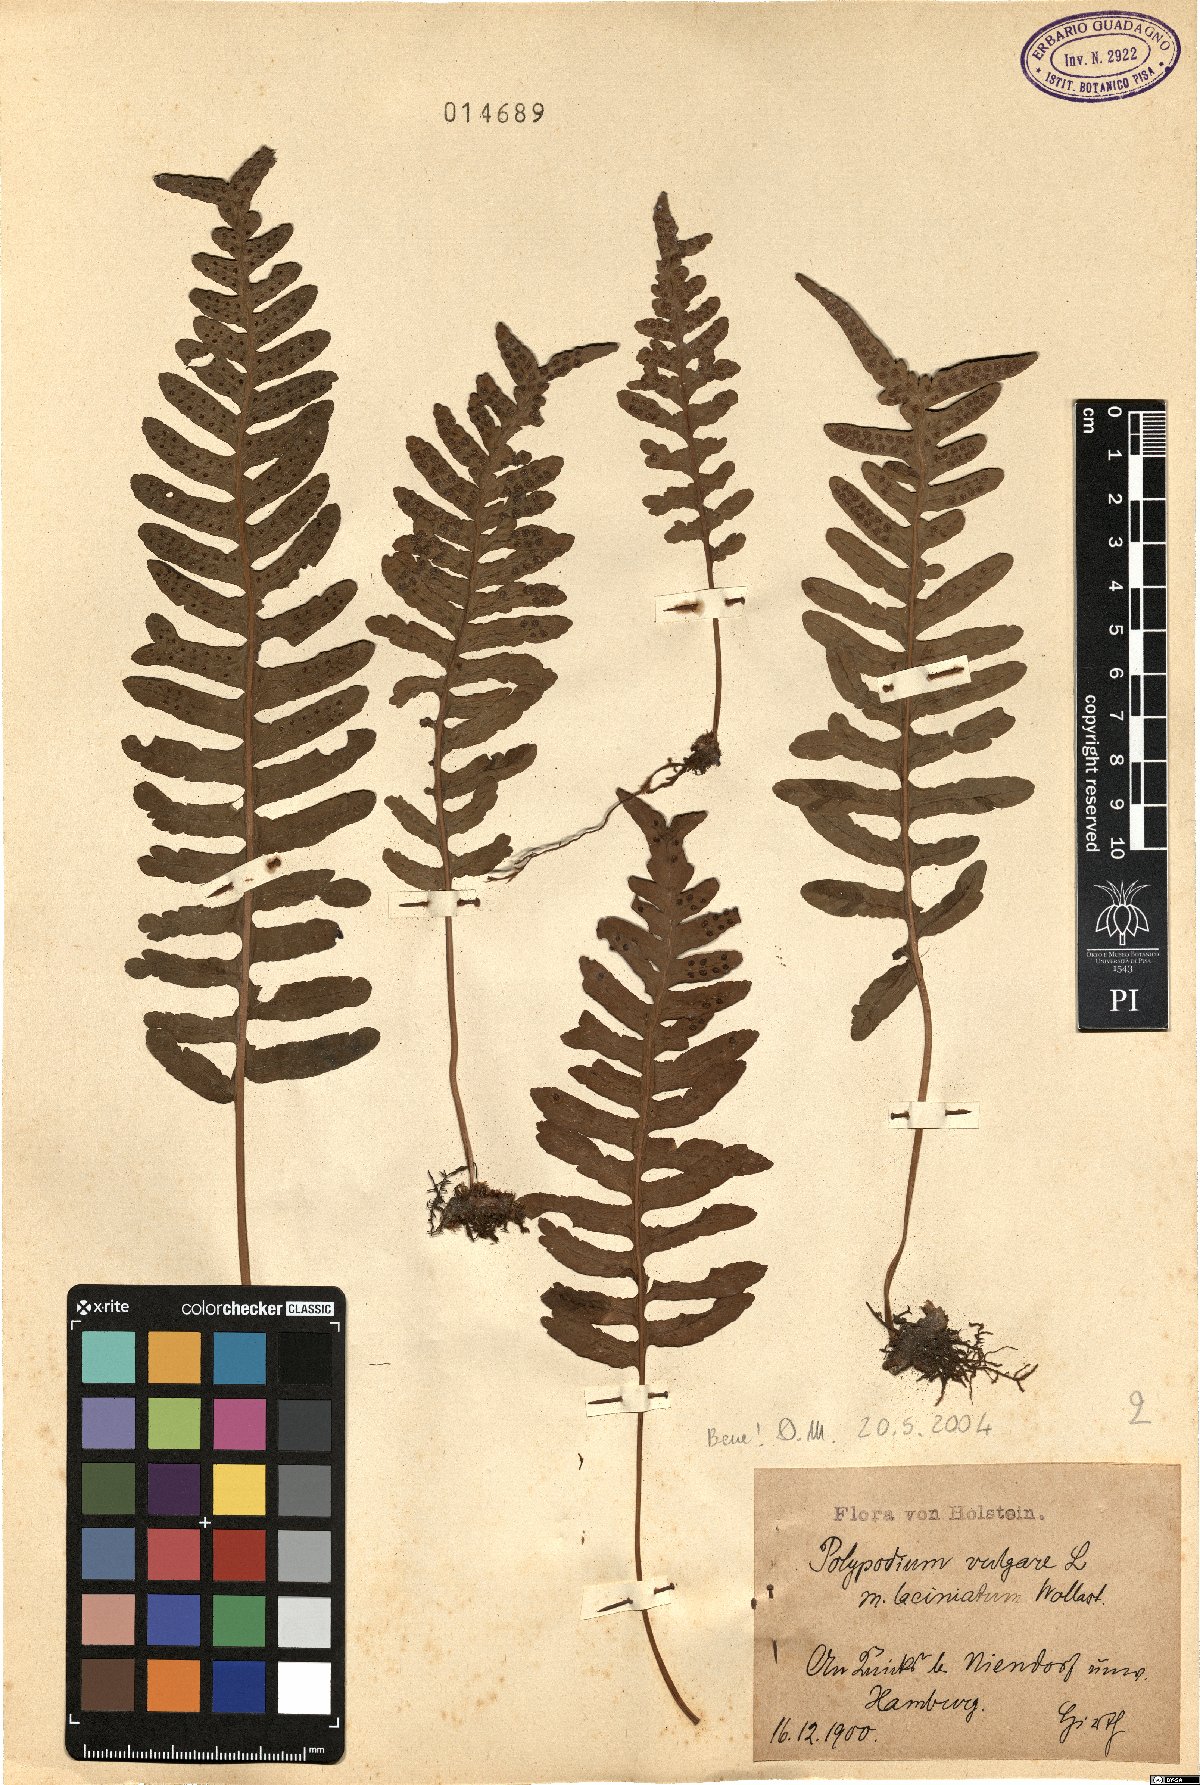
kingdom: Plantae
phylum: Tracheophyta
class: Polypodiopsida
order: Polypodiales
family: Polypodiaceae
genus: Polypodium
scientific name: Polypodium vulgare
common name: Common polypody
